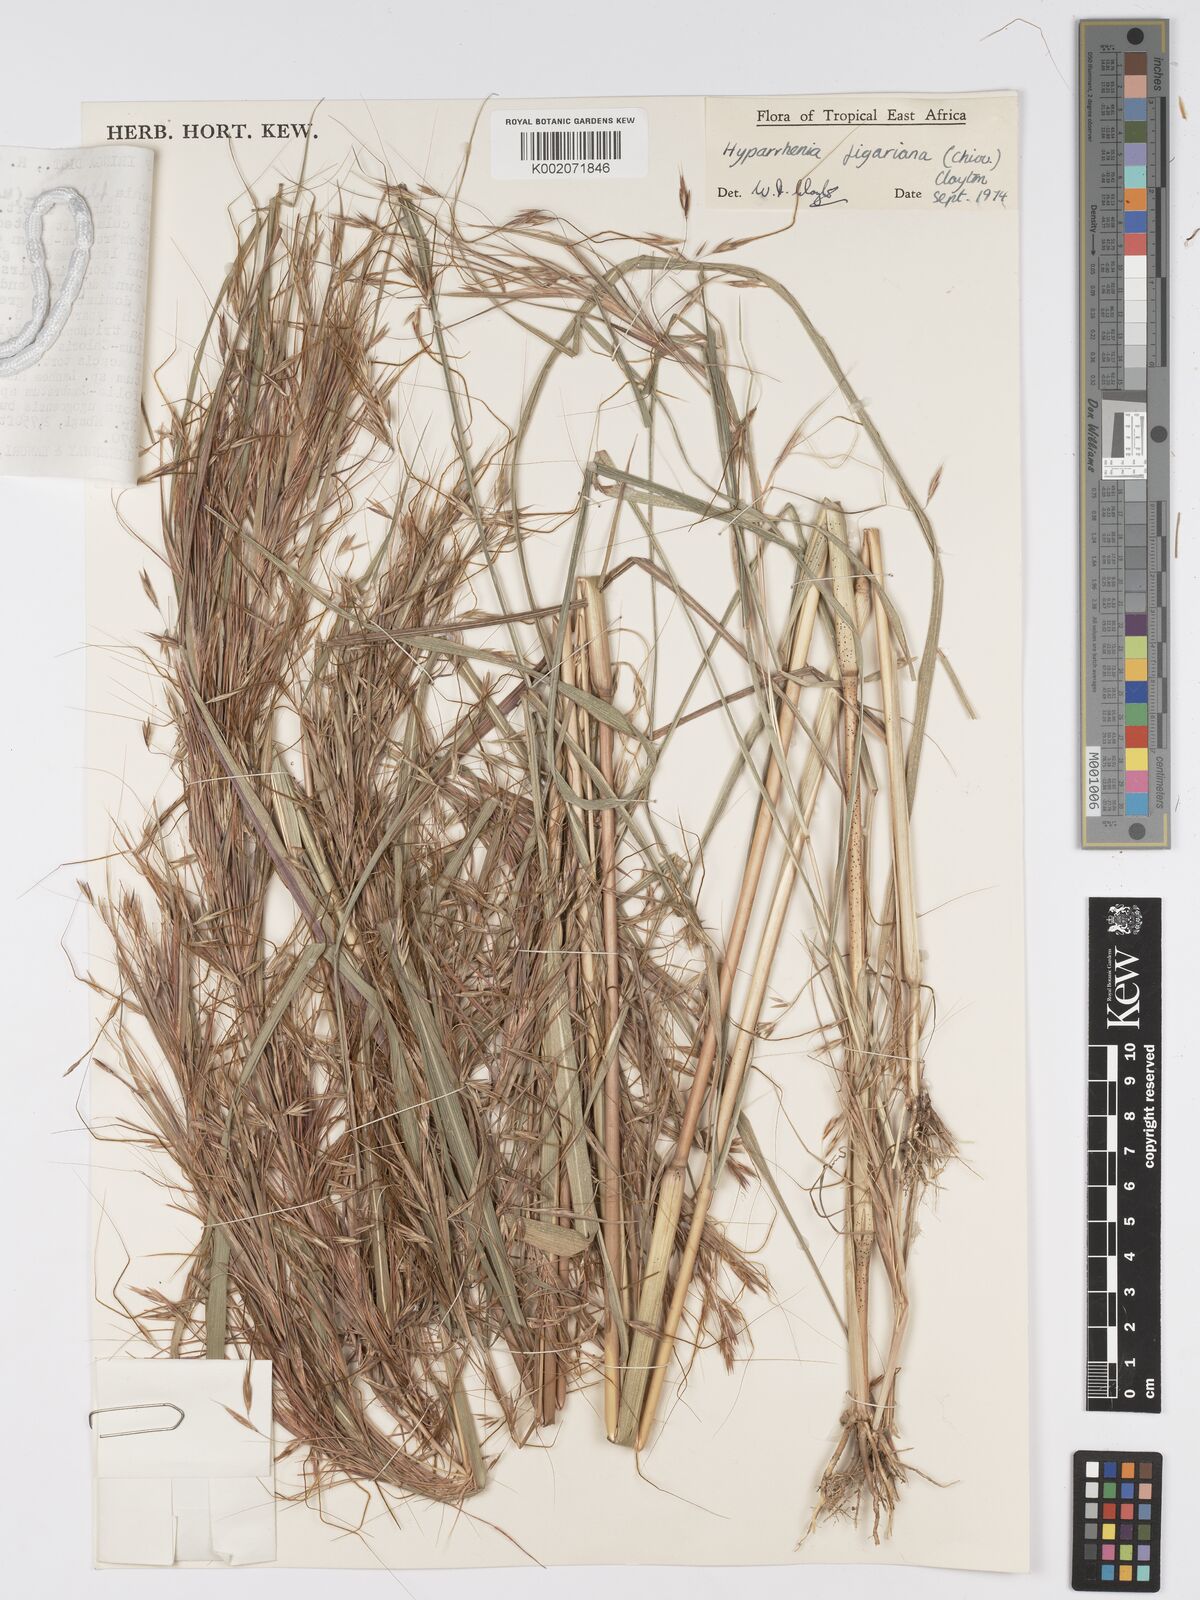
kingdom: Plantae
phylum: Tracheophyta
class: Liliopsida
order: Poales
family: Poaceae
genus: Hyparrhenia
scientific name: Hyparrhenia figariana
